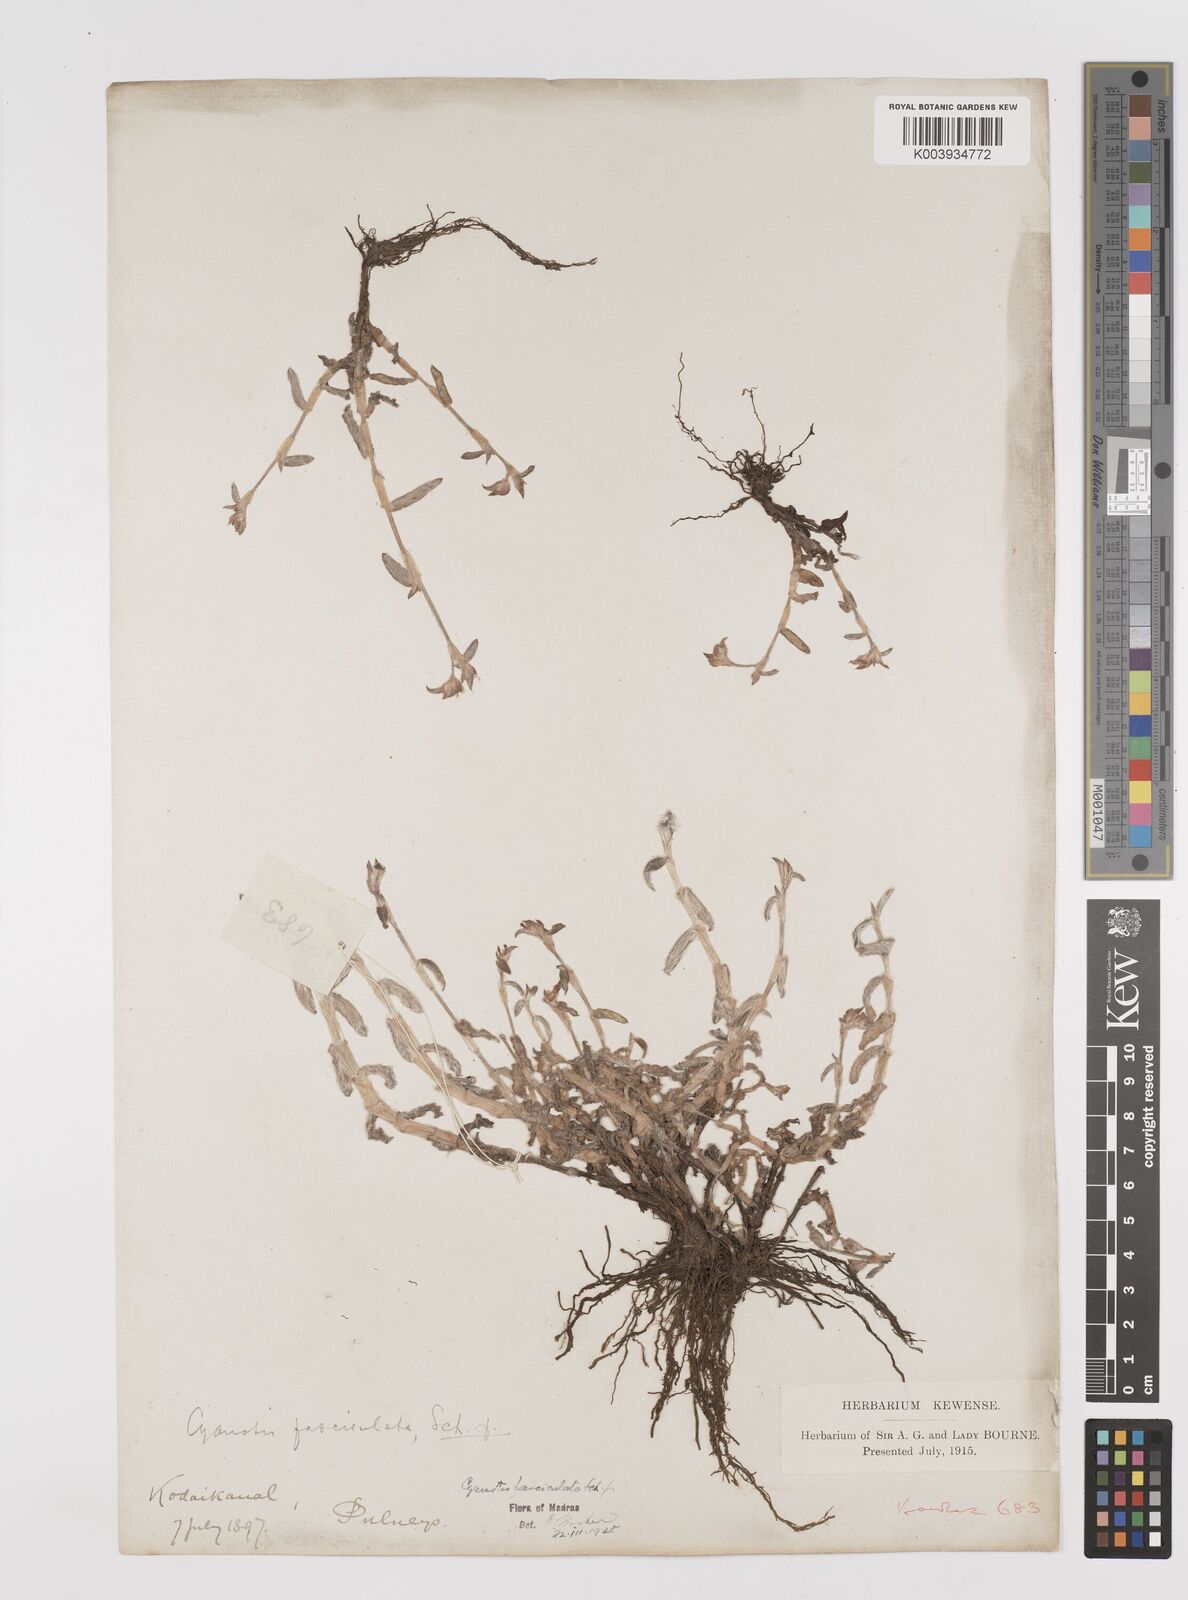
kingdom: Plantae
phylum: Tracheophyta
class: Liliopsida
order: Commelinales
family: Commelinaceae
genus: Cyanotis
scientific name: Cyanotis fasciculata
